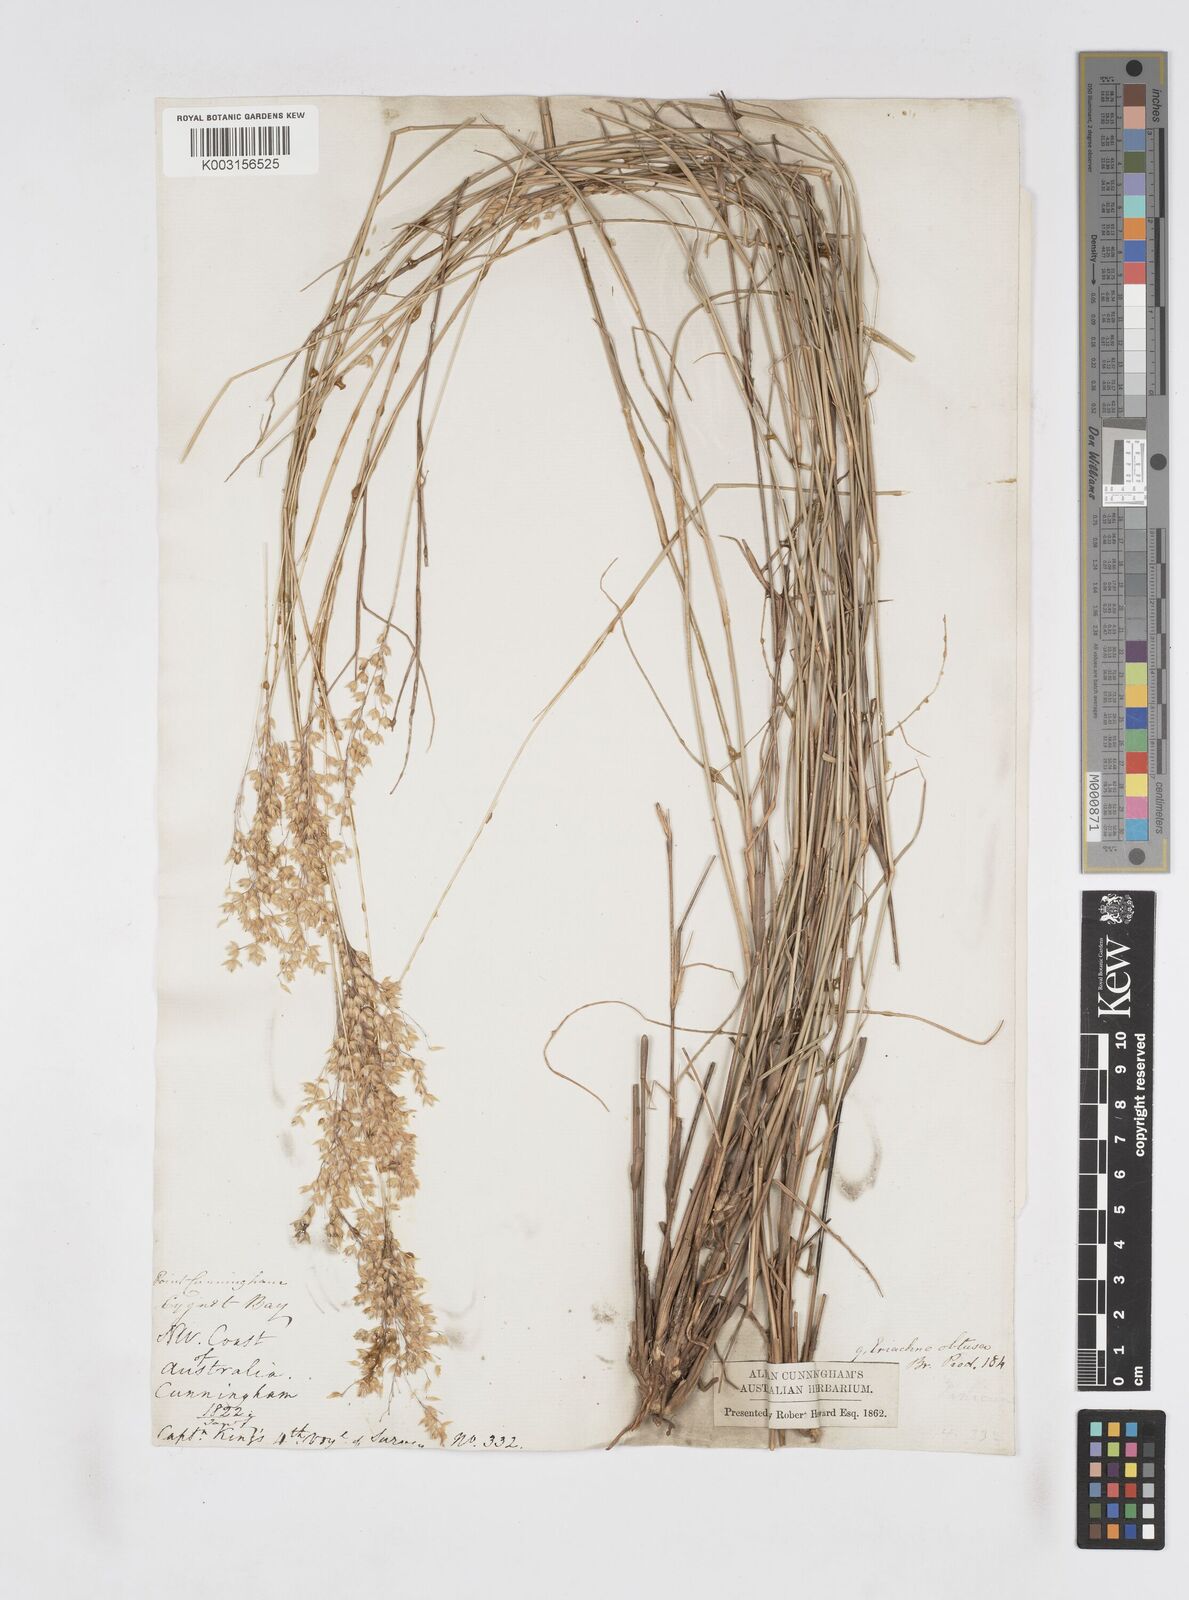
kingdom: Plantae
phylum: Tracheophyta
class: Liliopsida
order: Poales
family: Poaceae
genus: Eriachne
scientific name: Eriachne obtusa
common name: Northern wanderrie grass
